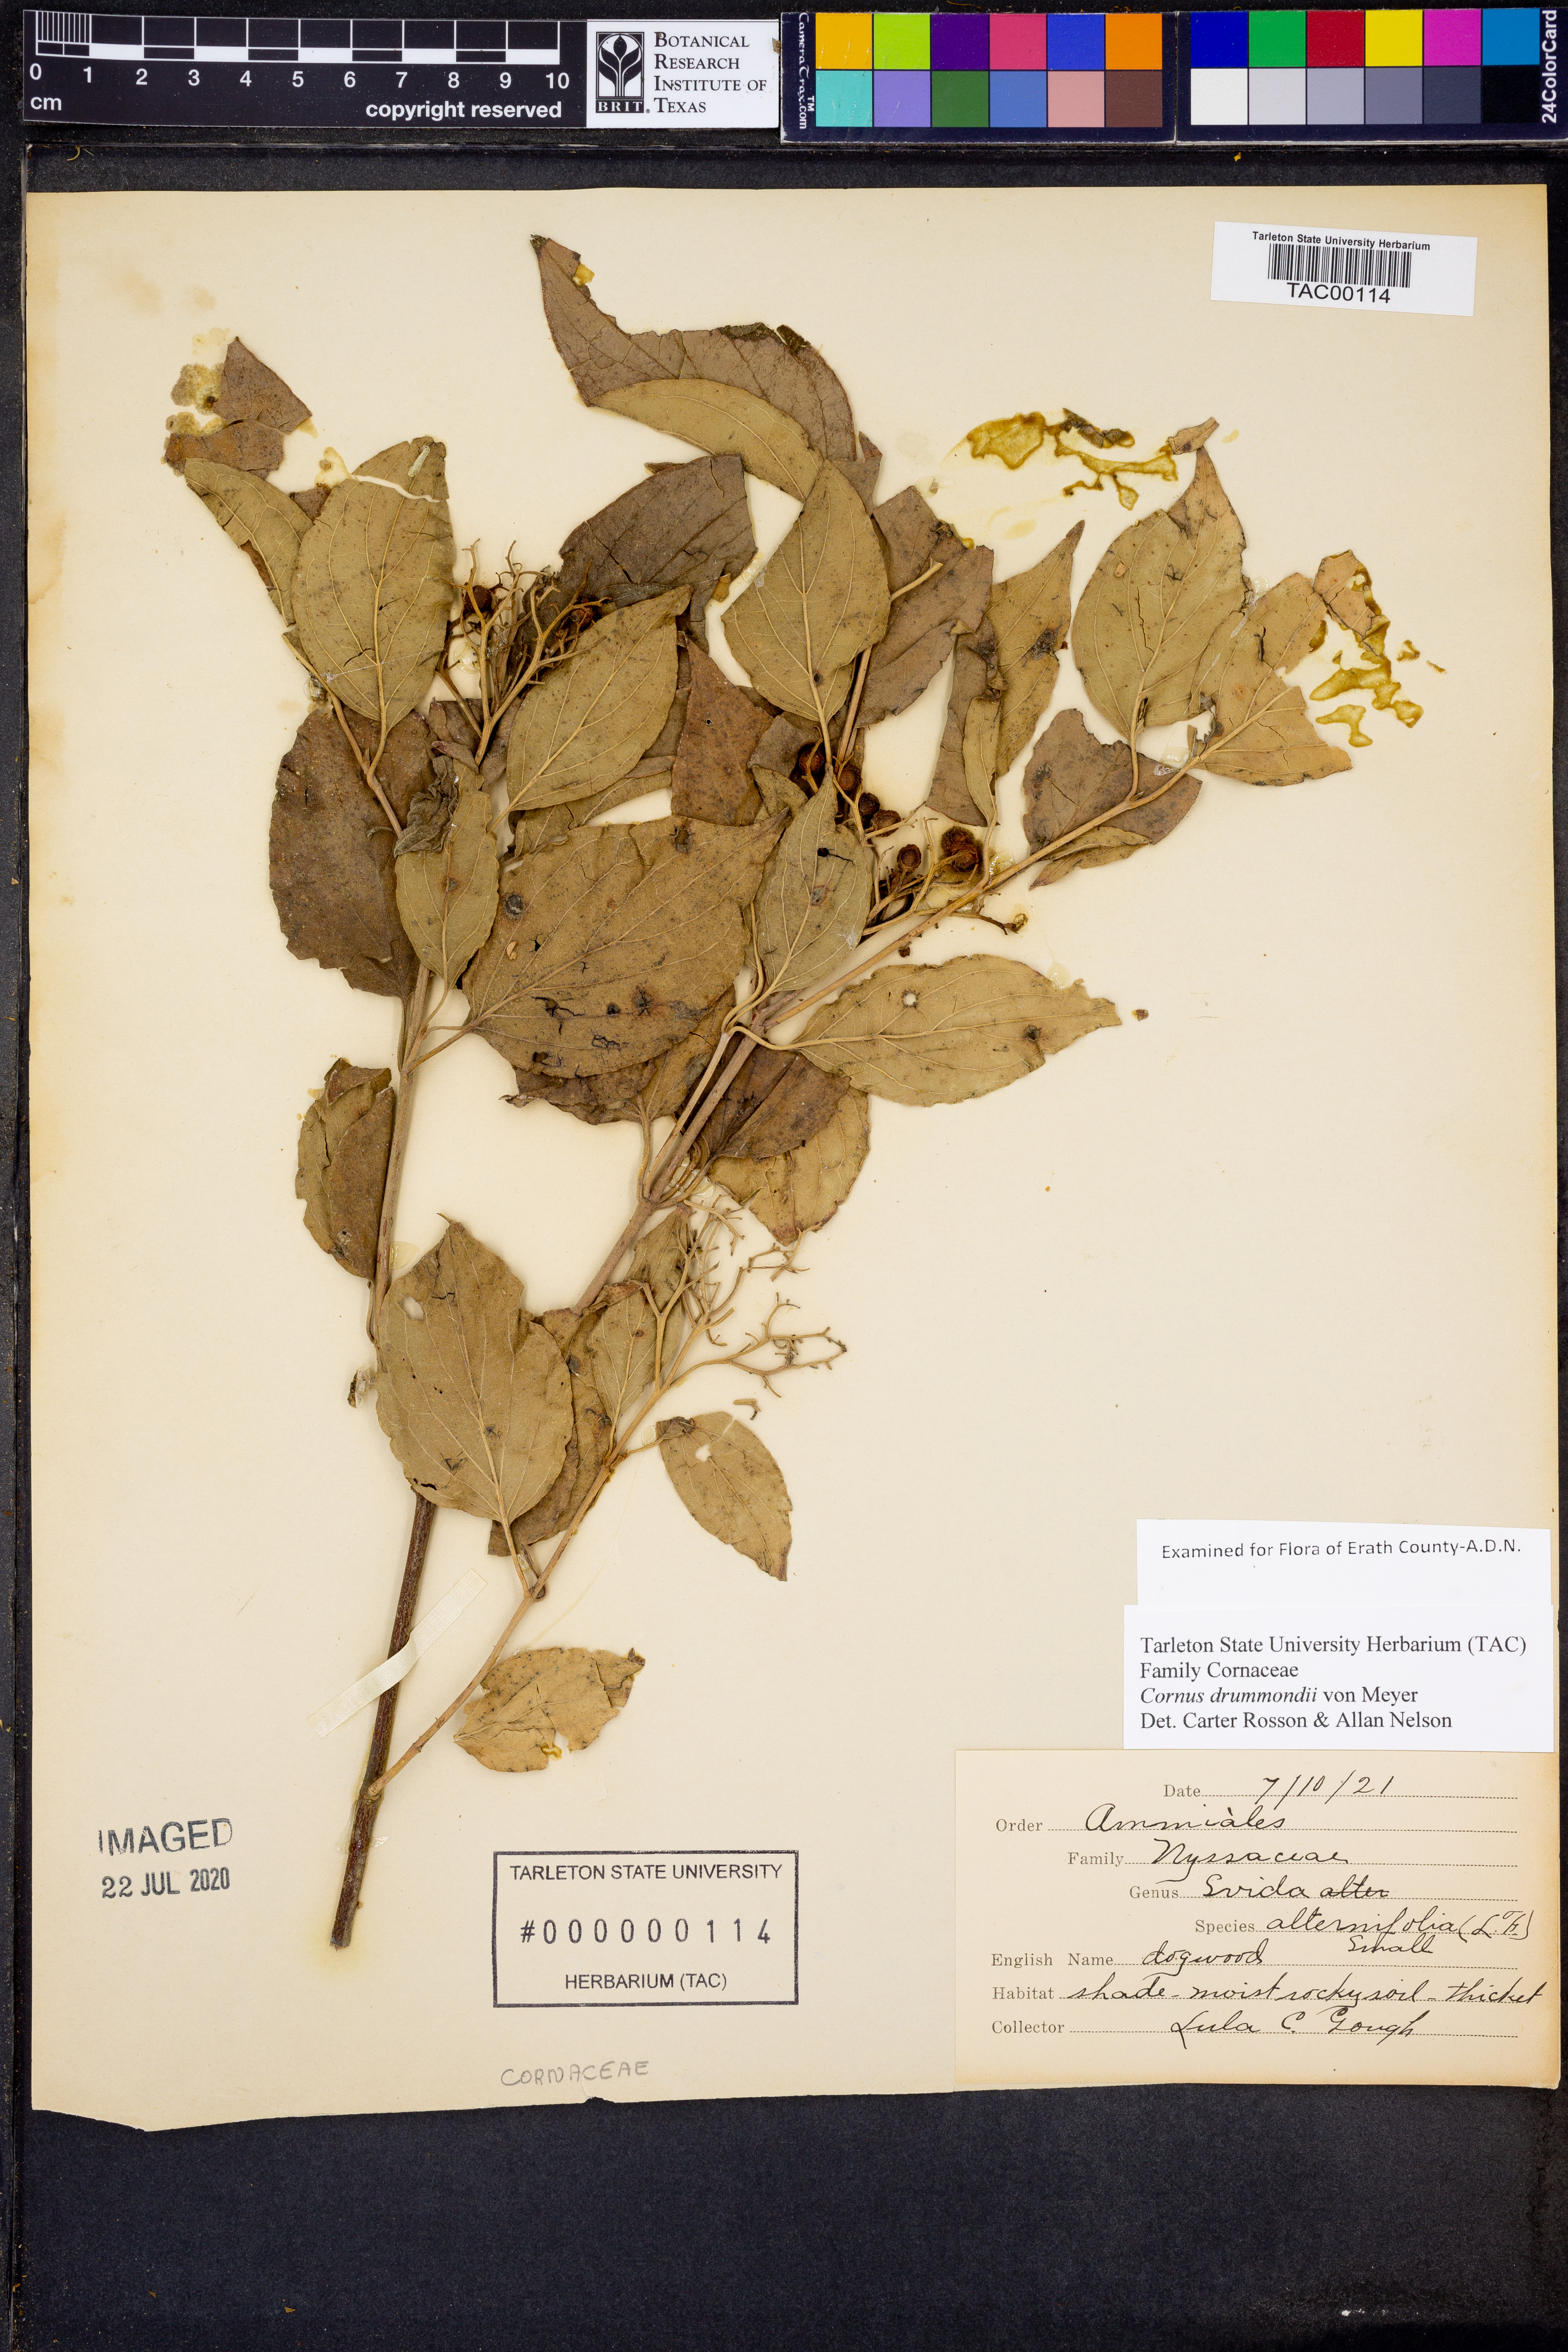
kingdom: Plantae
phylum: Tracheophyta
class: Magnoliopsida
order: Cornales
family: Cornaceae
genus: Cornus
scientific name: Cornus drummondii
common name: Rough-leaf dogwood
